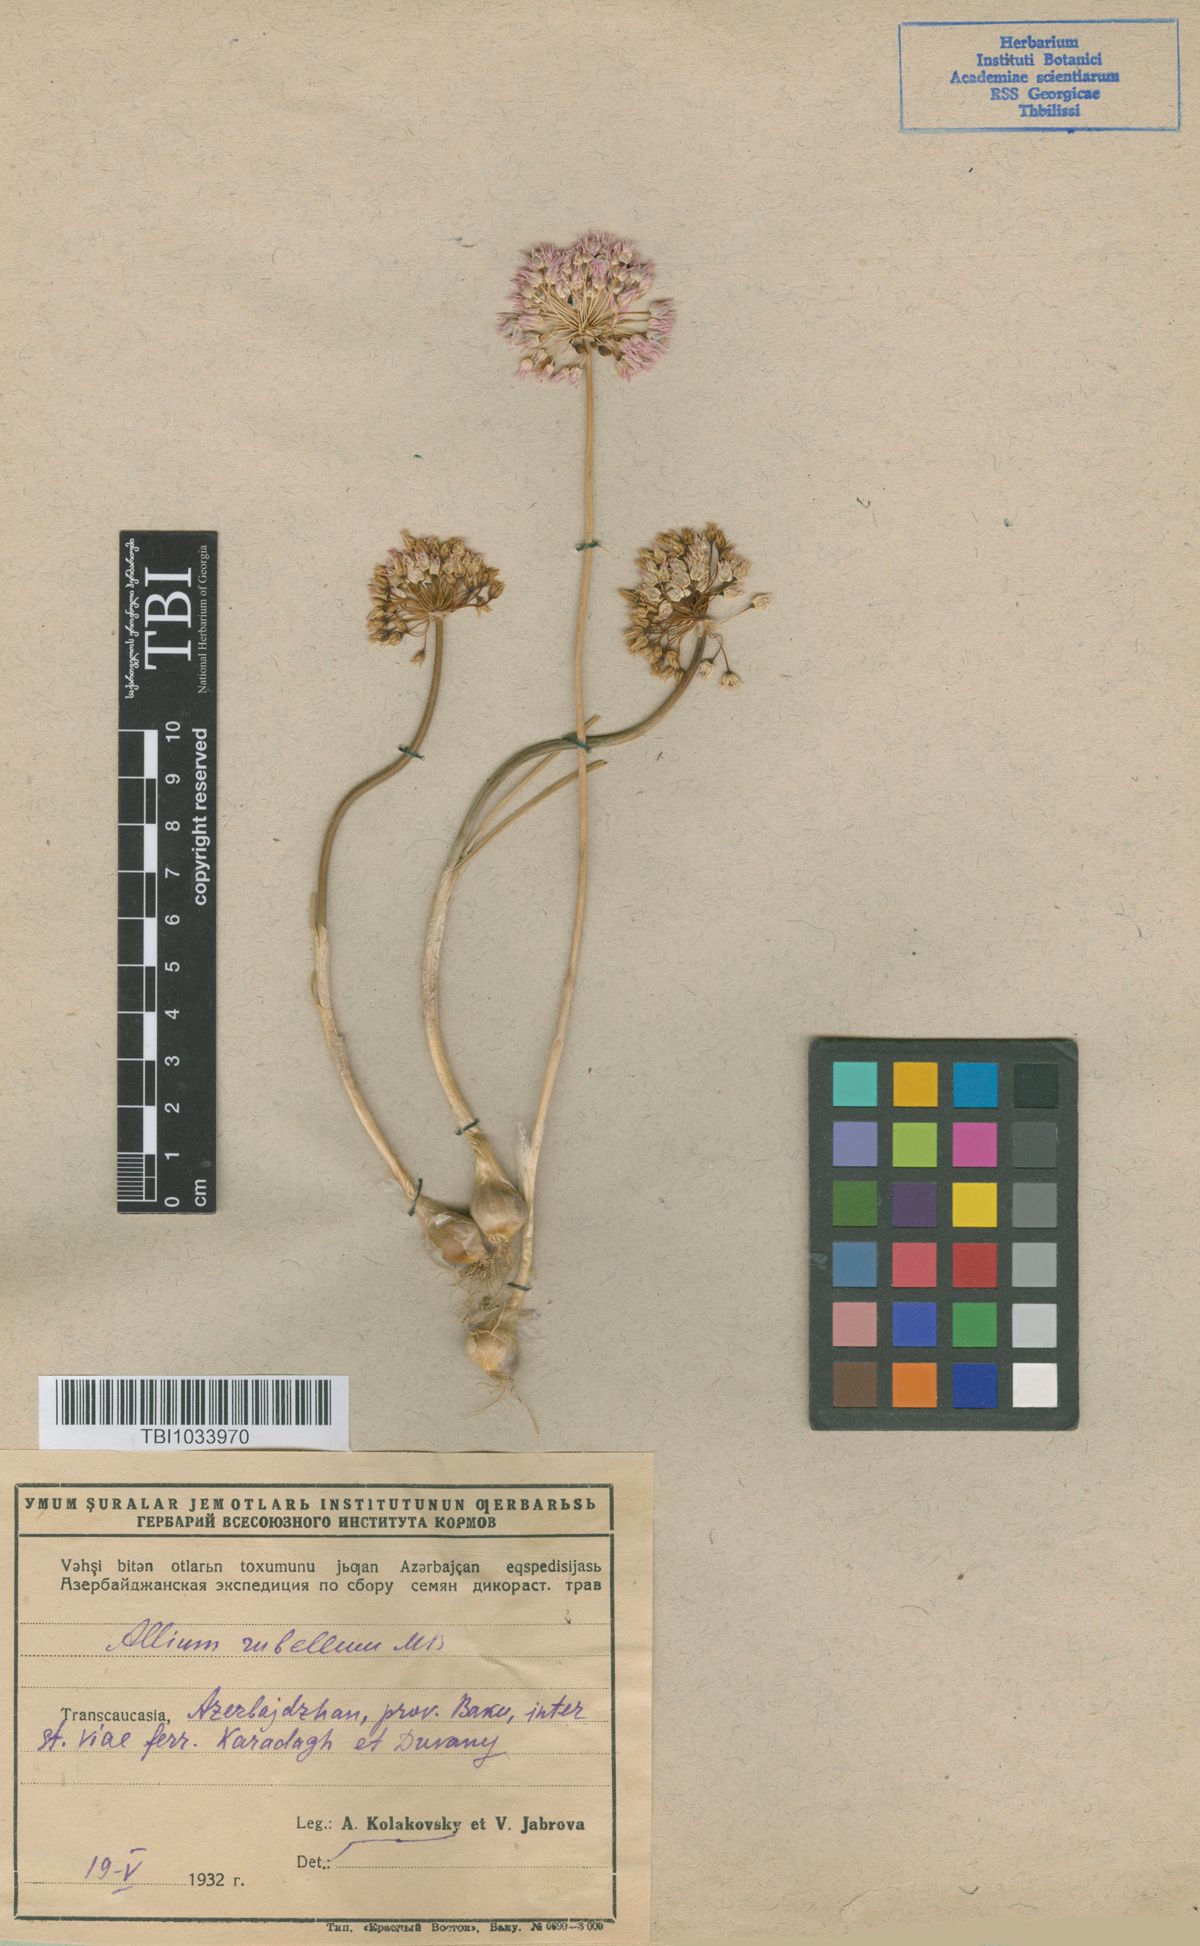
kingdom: Plantae
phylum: Tracheophyta
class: Liliopsida
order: Asparagales
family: Amaryllidaceae
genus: Allium
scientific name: Allium rubellum
